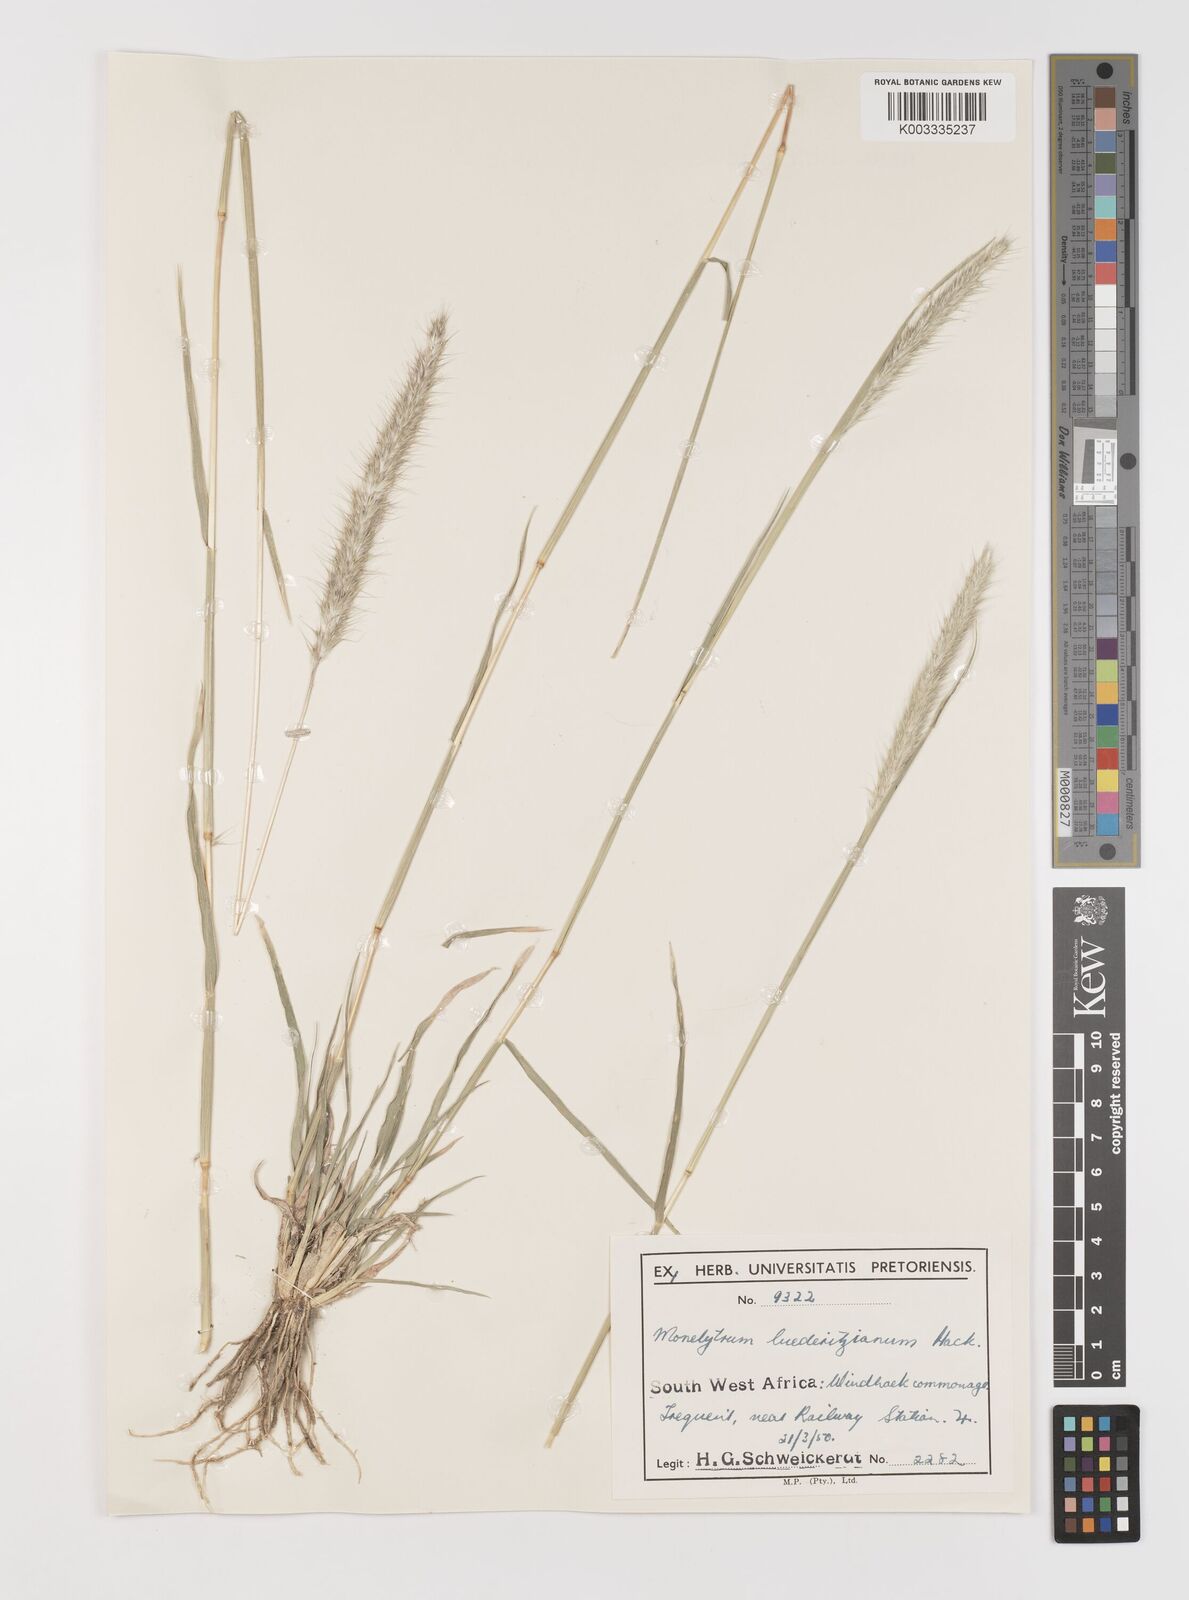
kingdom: Plantae
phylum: Tracheophyta
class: Liliopsida
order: Poales
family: Poaceae
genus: Monelytrum
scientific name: Monelytrum luederitzianum
